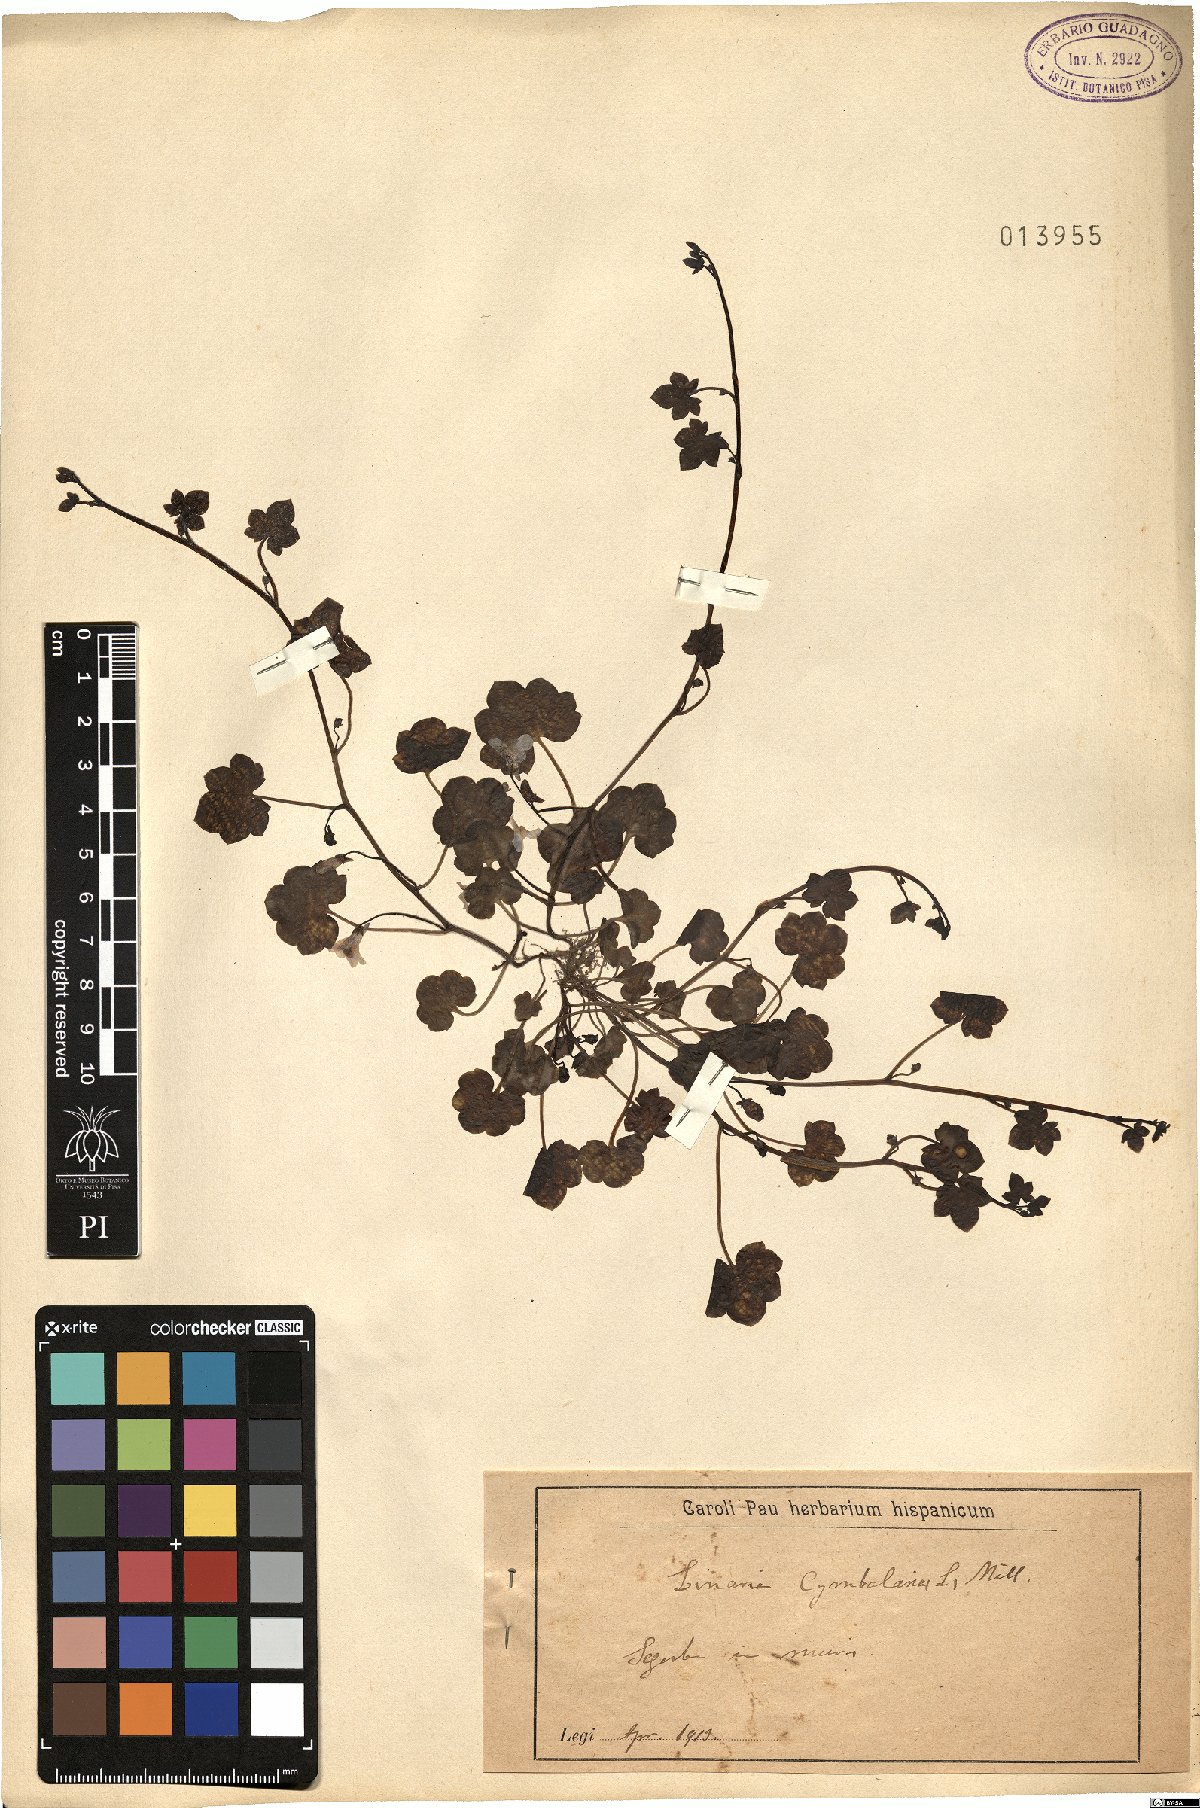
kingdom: Plantae
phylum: Tracheophyta
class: Magnoliopsida
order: Lamiales
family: Plantaginaceae
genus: Cymbalaria
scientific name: Cymbalaria muralis
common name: Ivy-leaved toadflax
